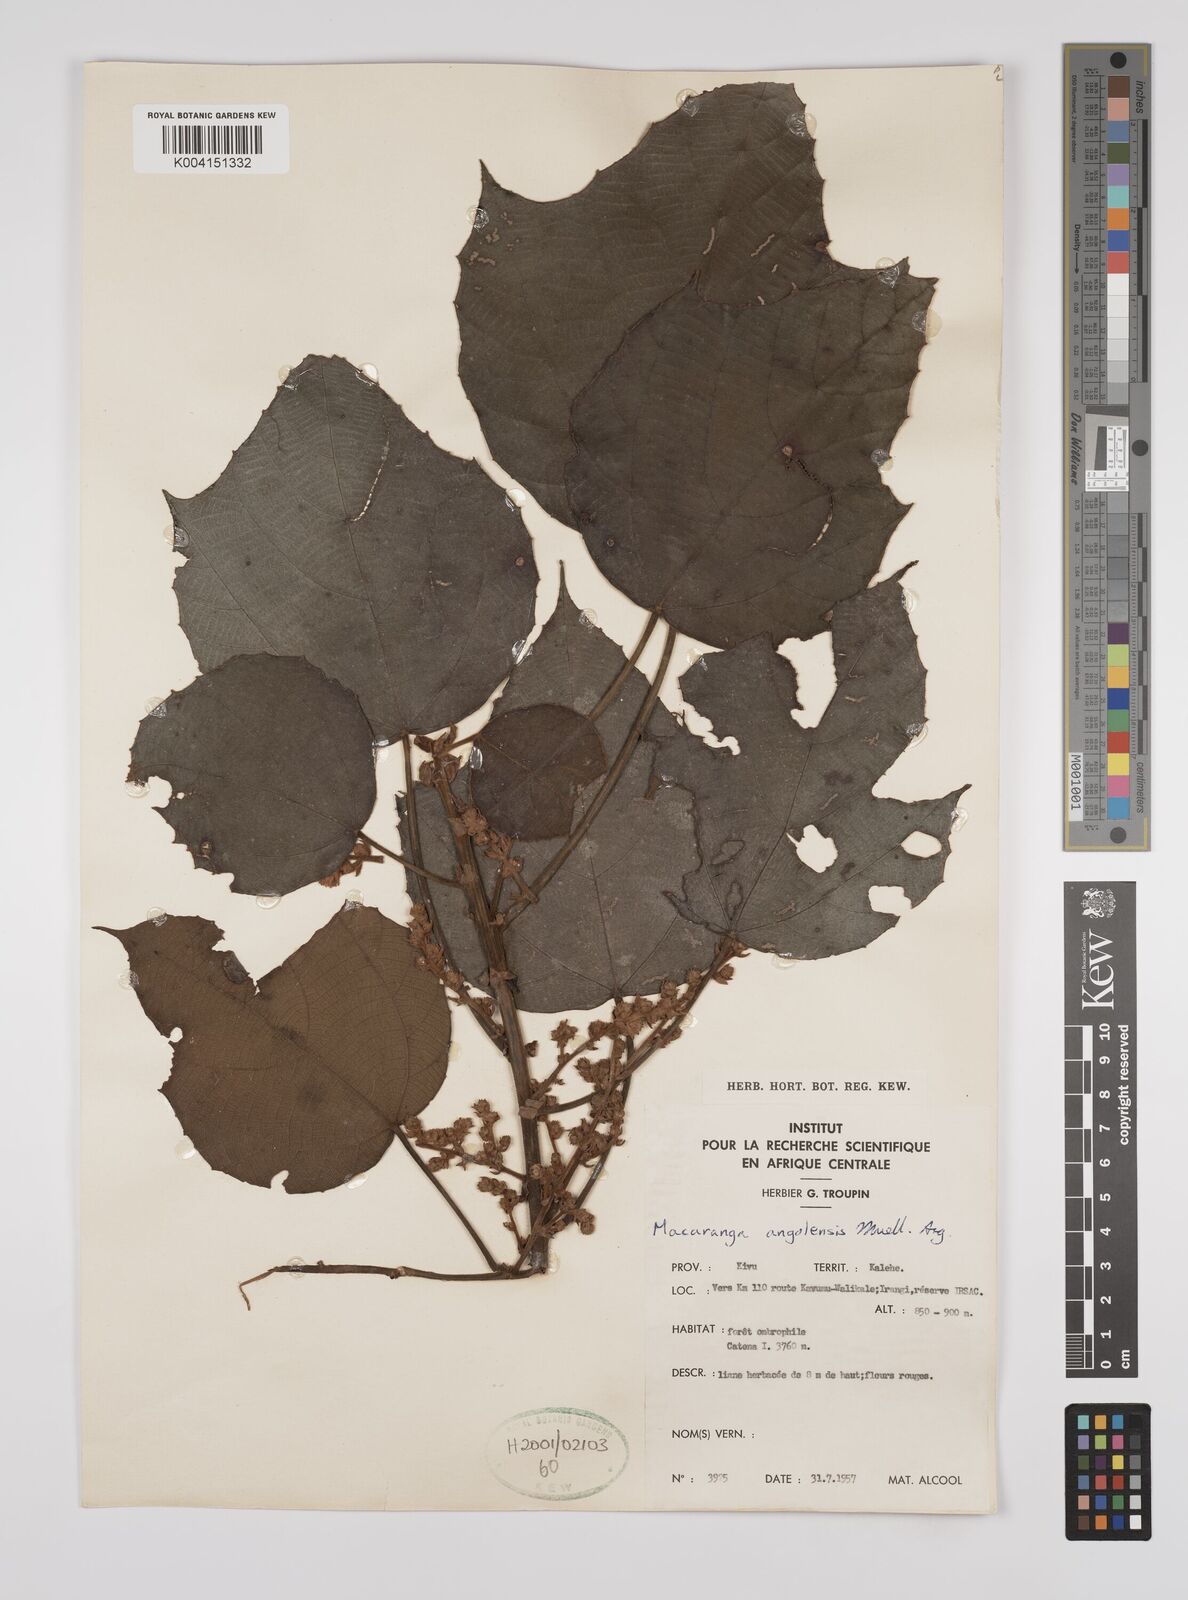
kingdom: Plantae
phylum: Tracheophyta
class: Magnoliopsida
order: Malpighiales
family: Euphorbiaceae
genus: Macaranga
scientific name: Macaranga angolensis
